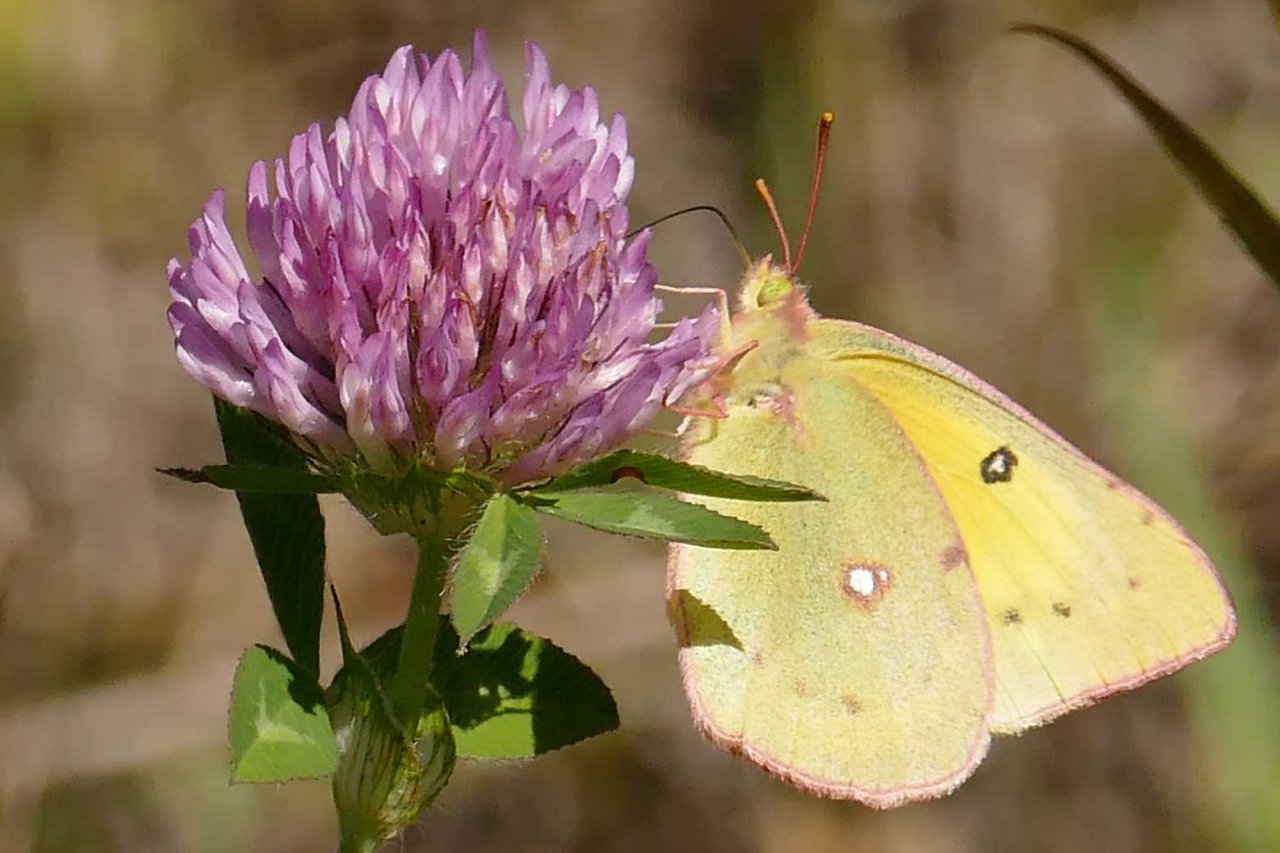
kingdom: Animalia
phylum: Arthropoda
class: Insecta
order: Lepidoptera
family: Pieridae
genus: Colias
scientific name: Colias eurytheme
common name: Orange Sulphur
